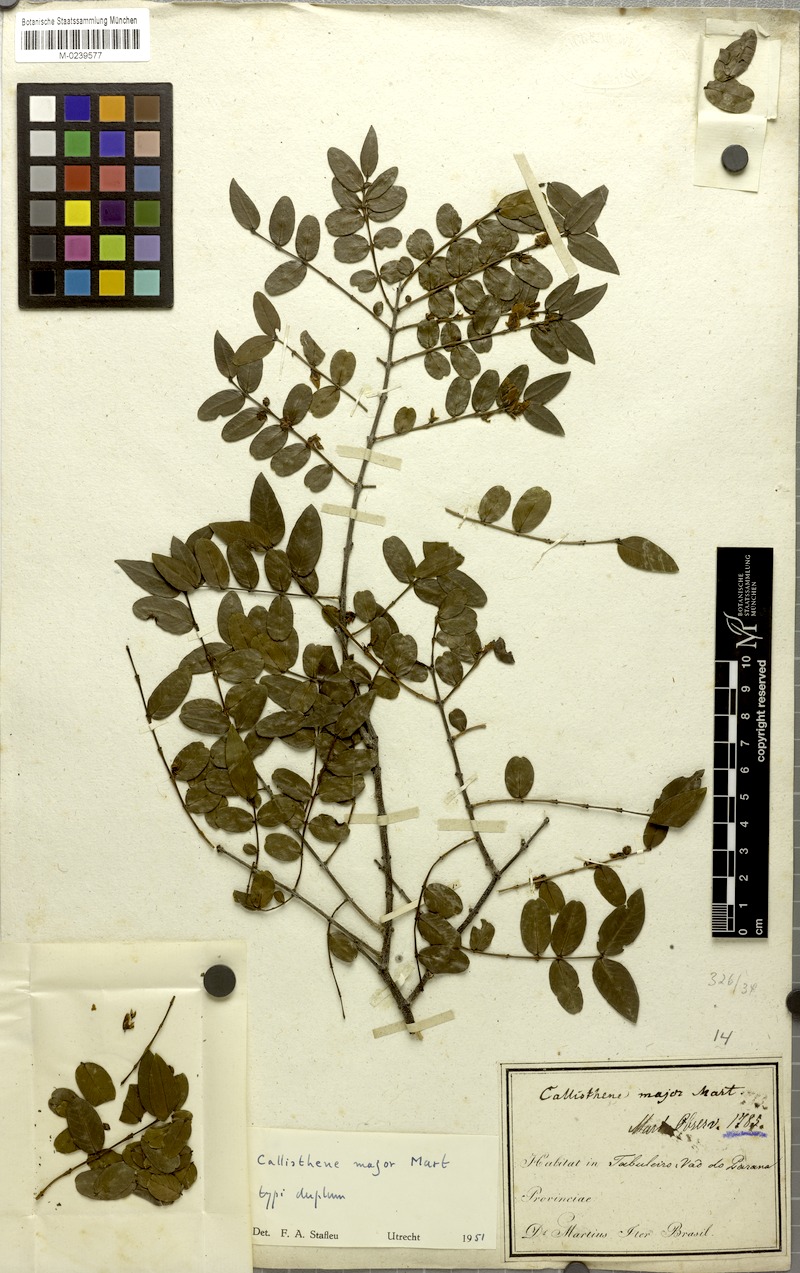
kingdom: Plantae
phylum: Tracheophyta
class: Magnoliopsida
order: Myrtales
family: Vochysiaceae
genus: Callisthene
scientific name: Callisthene major
